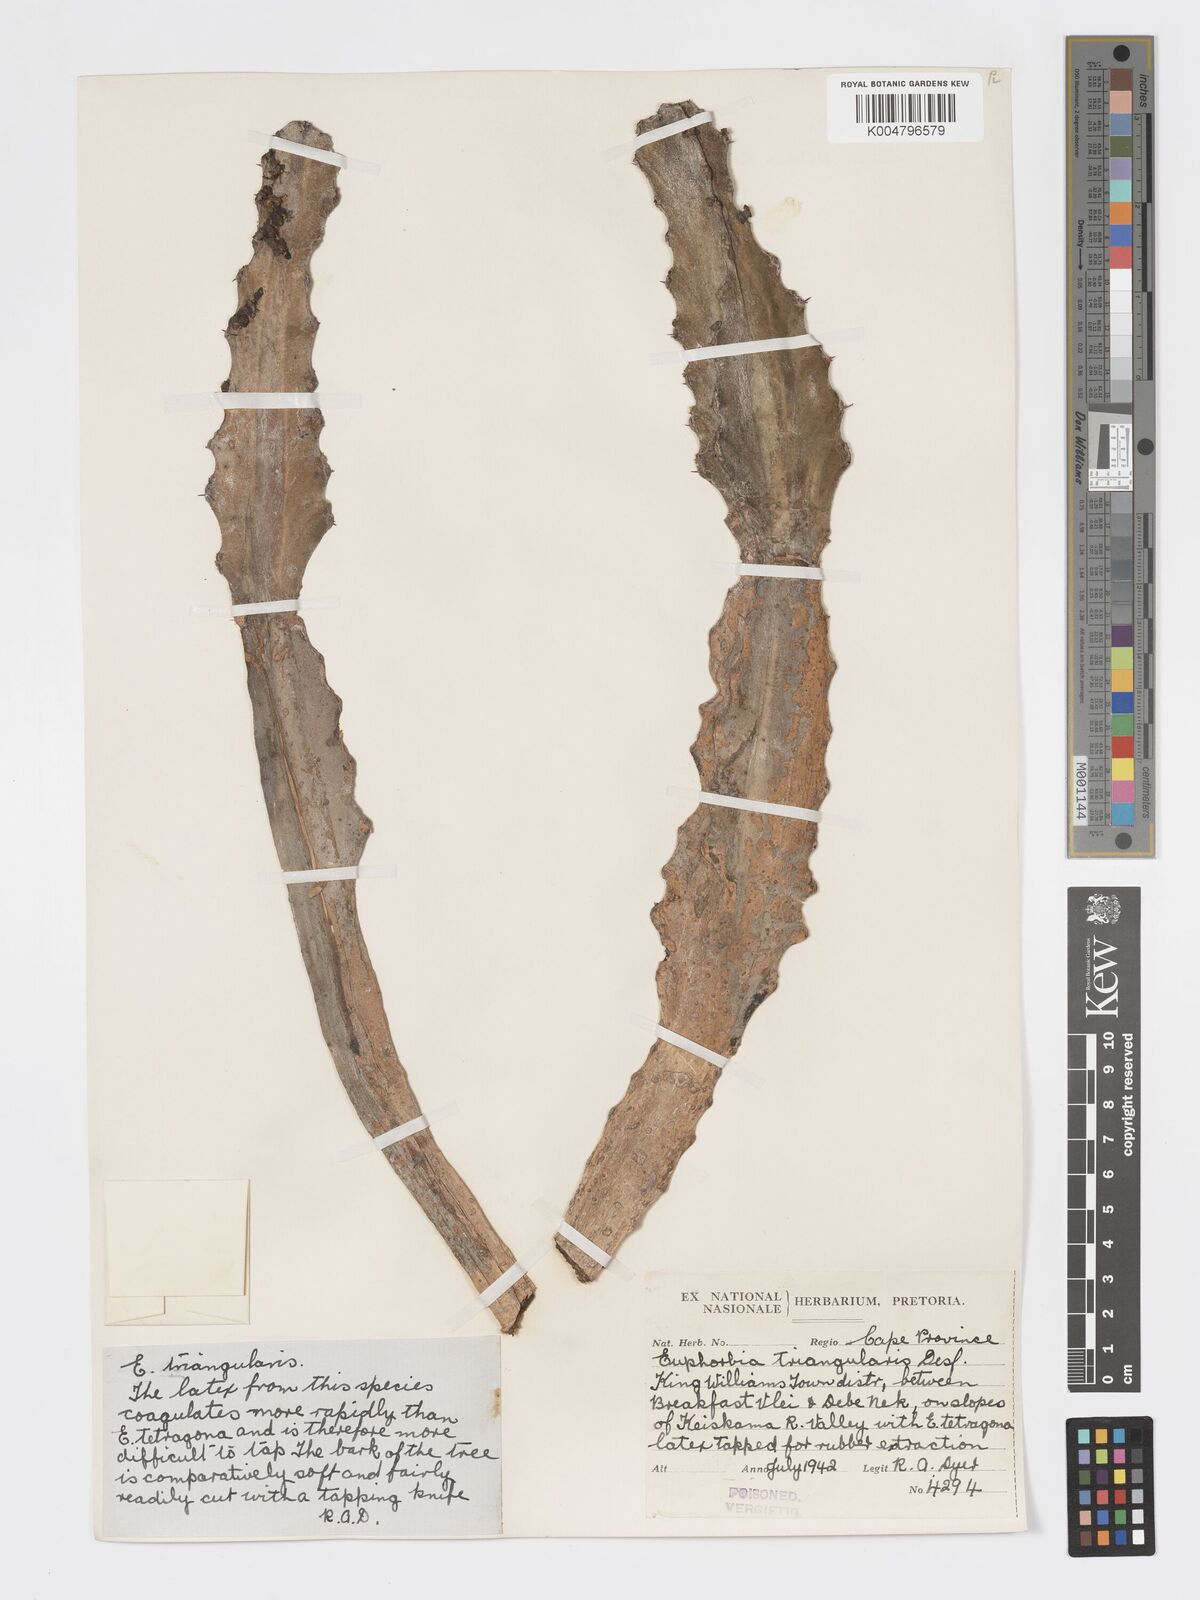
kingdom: Plantae
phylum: Tracheophyta
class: Magnoliopsida
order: Malpighiales
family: Euphorbiaceae
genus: Euphorbia
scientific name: Euphorbia triangularis
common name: Chandelier tree
